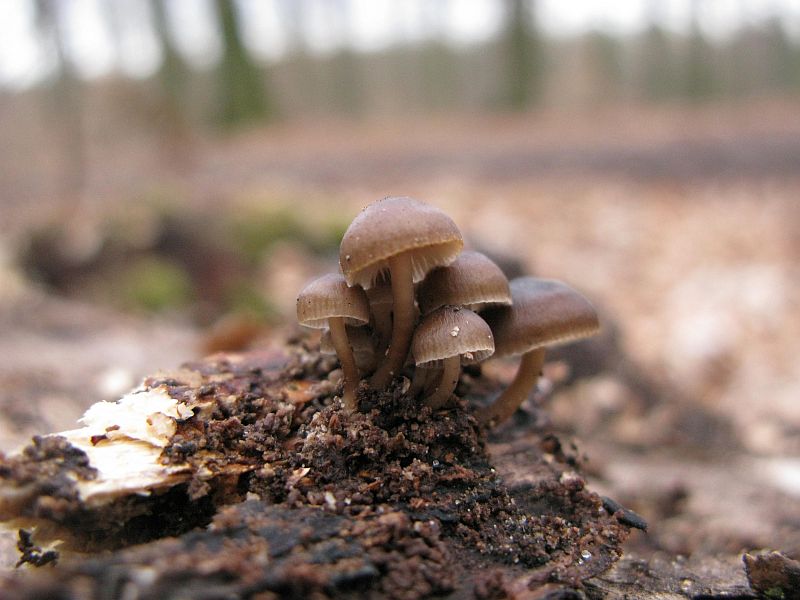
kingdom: Fungi
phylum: Basidiomycota
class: Agaricomycetes
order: Agaricales
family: Mycenaceae
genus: Mycena
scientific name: Mycena tintinnabulum
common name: vinter-huesvamp
